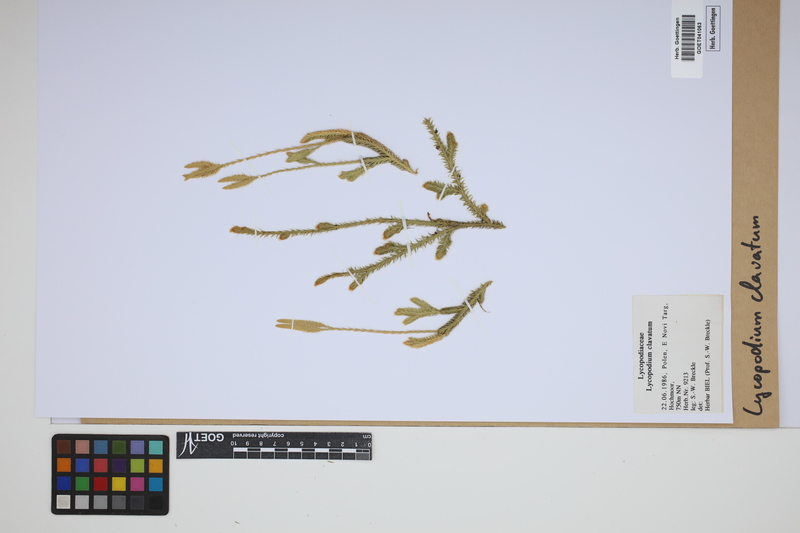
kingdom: Plantae
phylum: Tracheophyta
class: Lycopodiopsida
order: Lycopodiales
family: Lycopodiaceae
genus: Lycopodium
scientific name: Lycopodium clavatum
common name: Stag's-horn clubmoss
